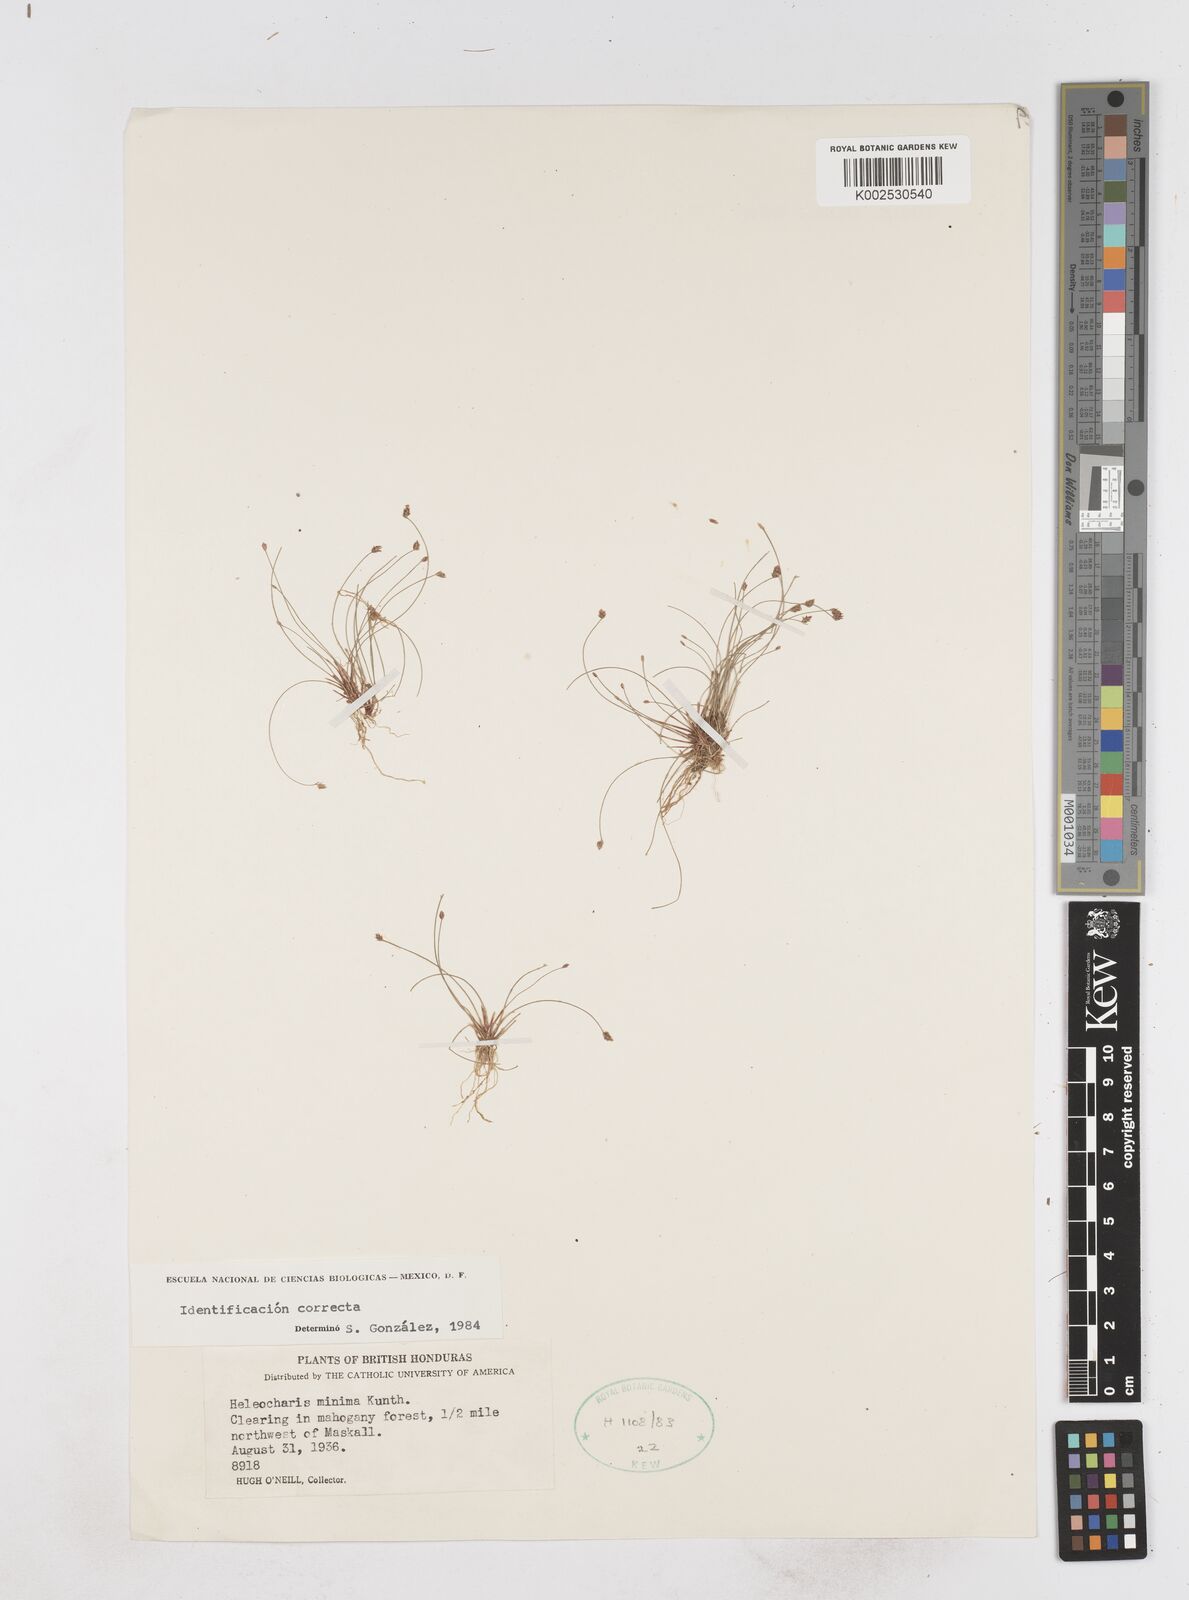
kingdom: Plantae
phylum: Tracheophyta
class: Liliopsida
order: Poales
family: Cyperaceae
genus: Eleocharis
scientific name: Eleocharis minima
